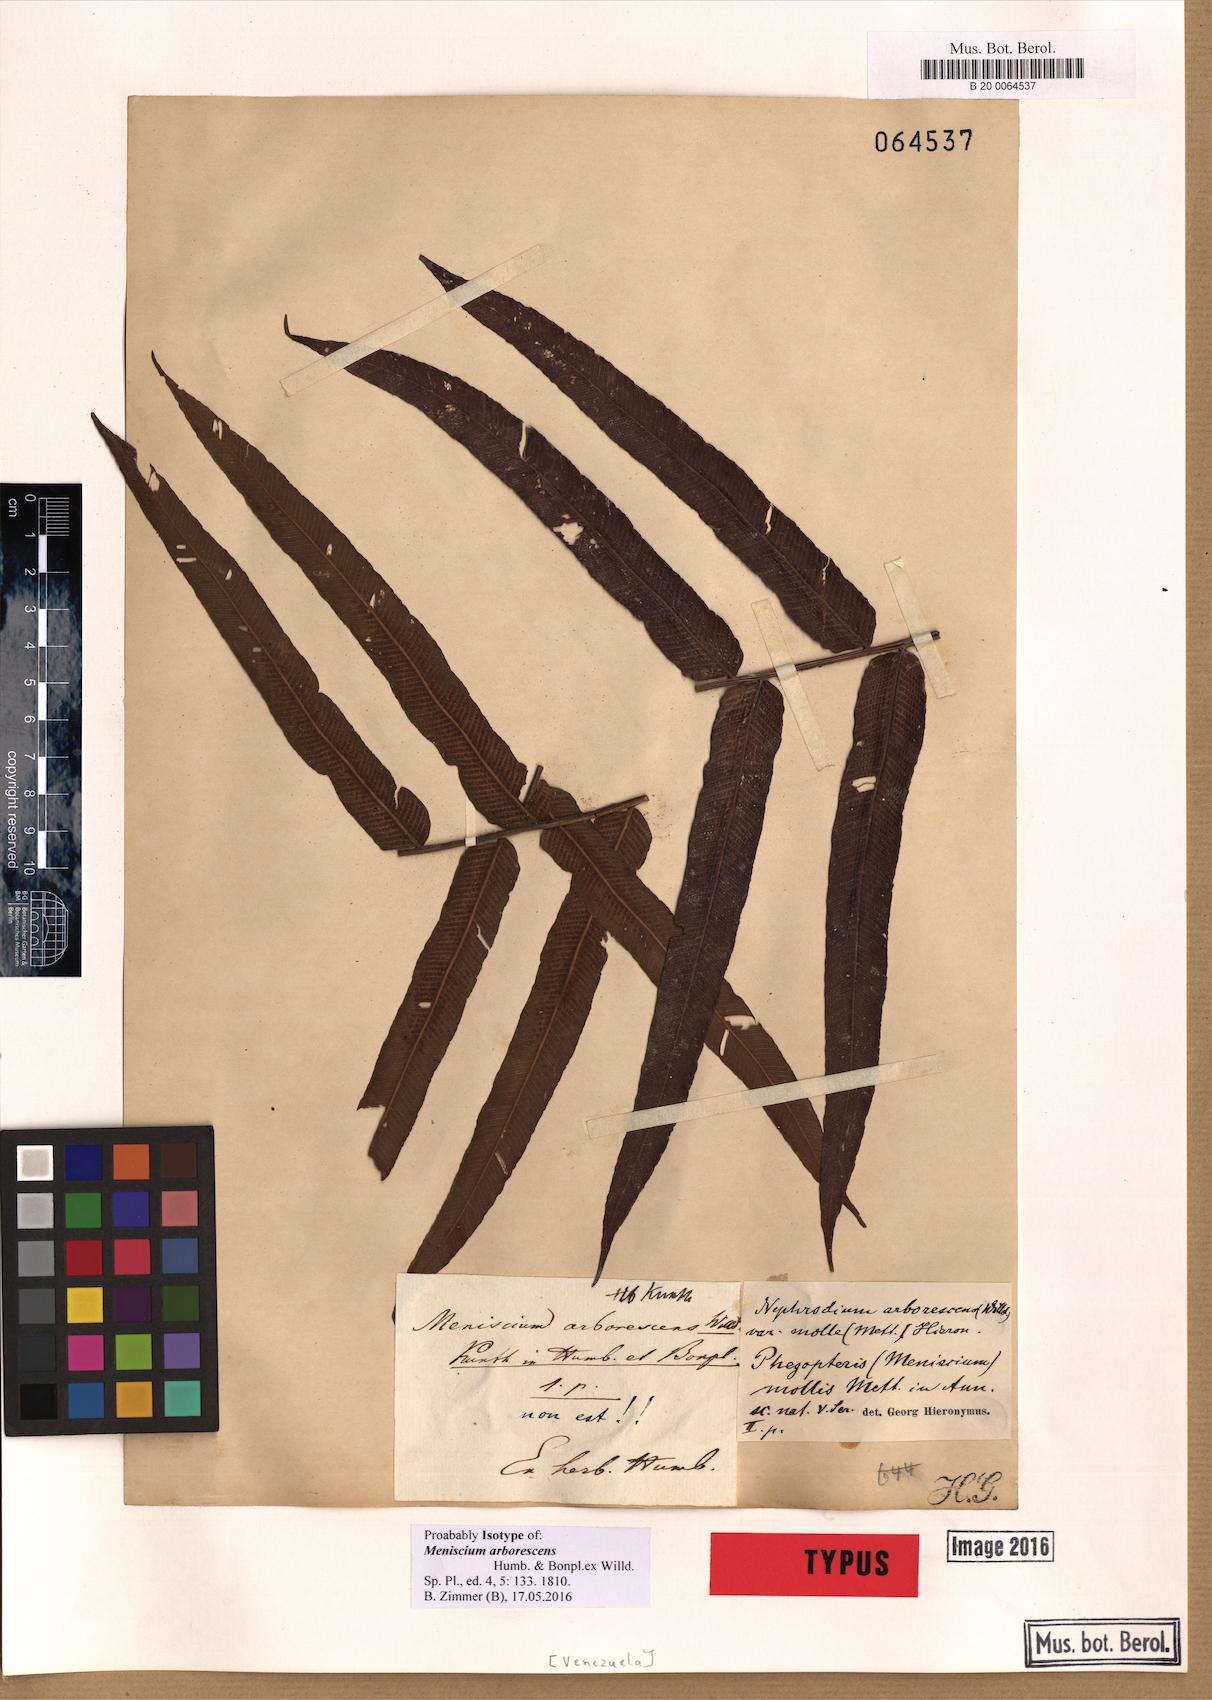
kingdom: Plantae
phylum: Tracheophyta
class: Polypodiopsida
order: Polypodiales
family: Thelypteridaceae
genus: Meniscium
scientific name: Meniscium arborescens
